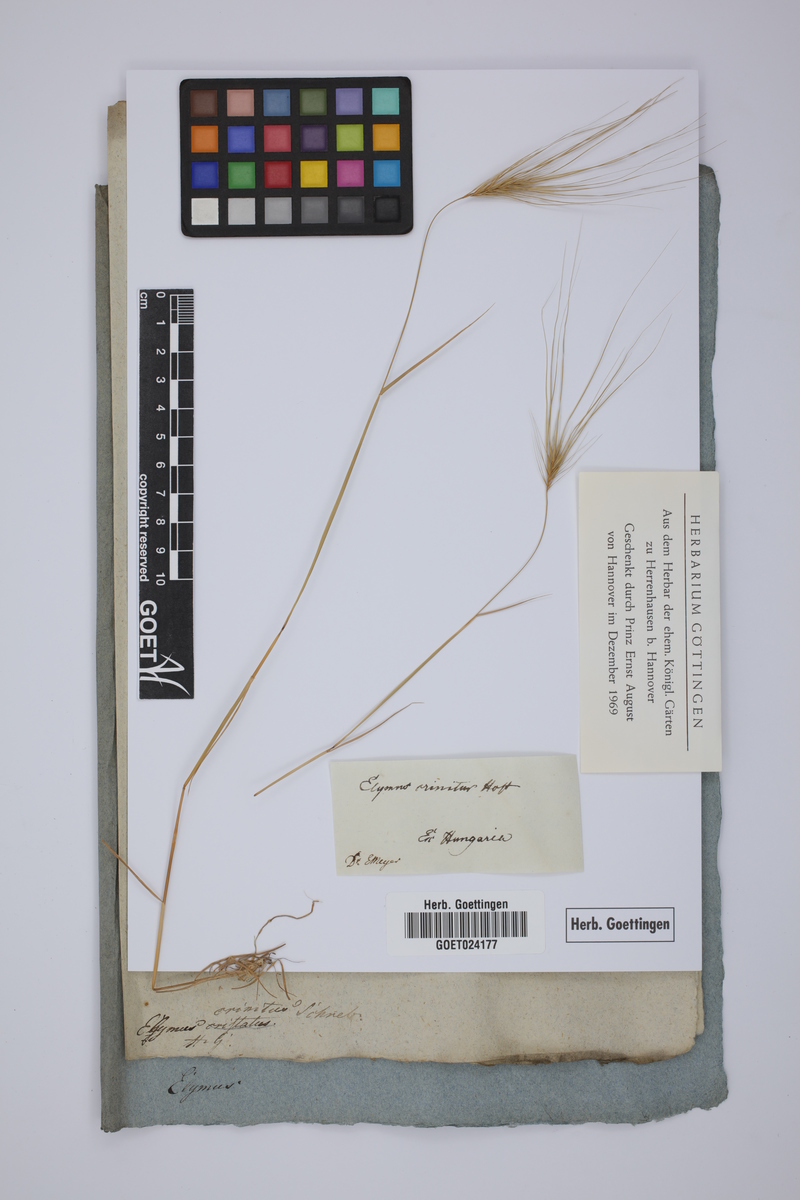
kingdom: Plantae
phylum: Tracheophyta
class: Liliopsida
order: Poales
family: Poaceae
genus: Taeniatherum
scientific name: Taeniatherum caput-medusae
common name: Medusahead
